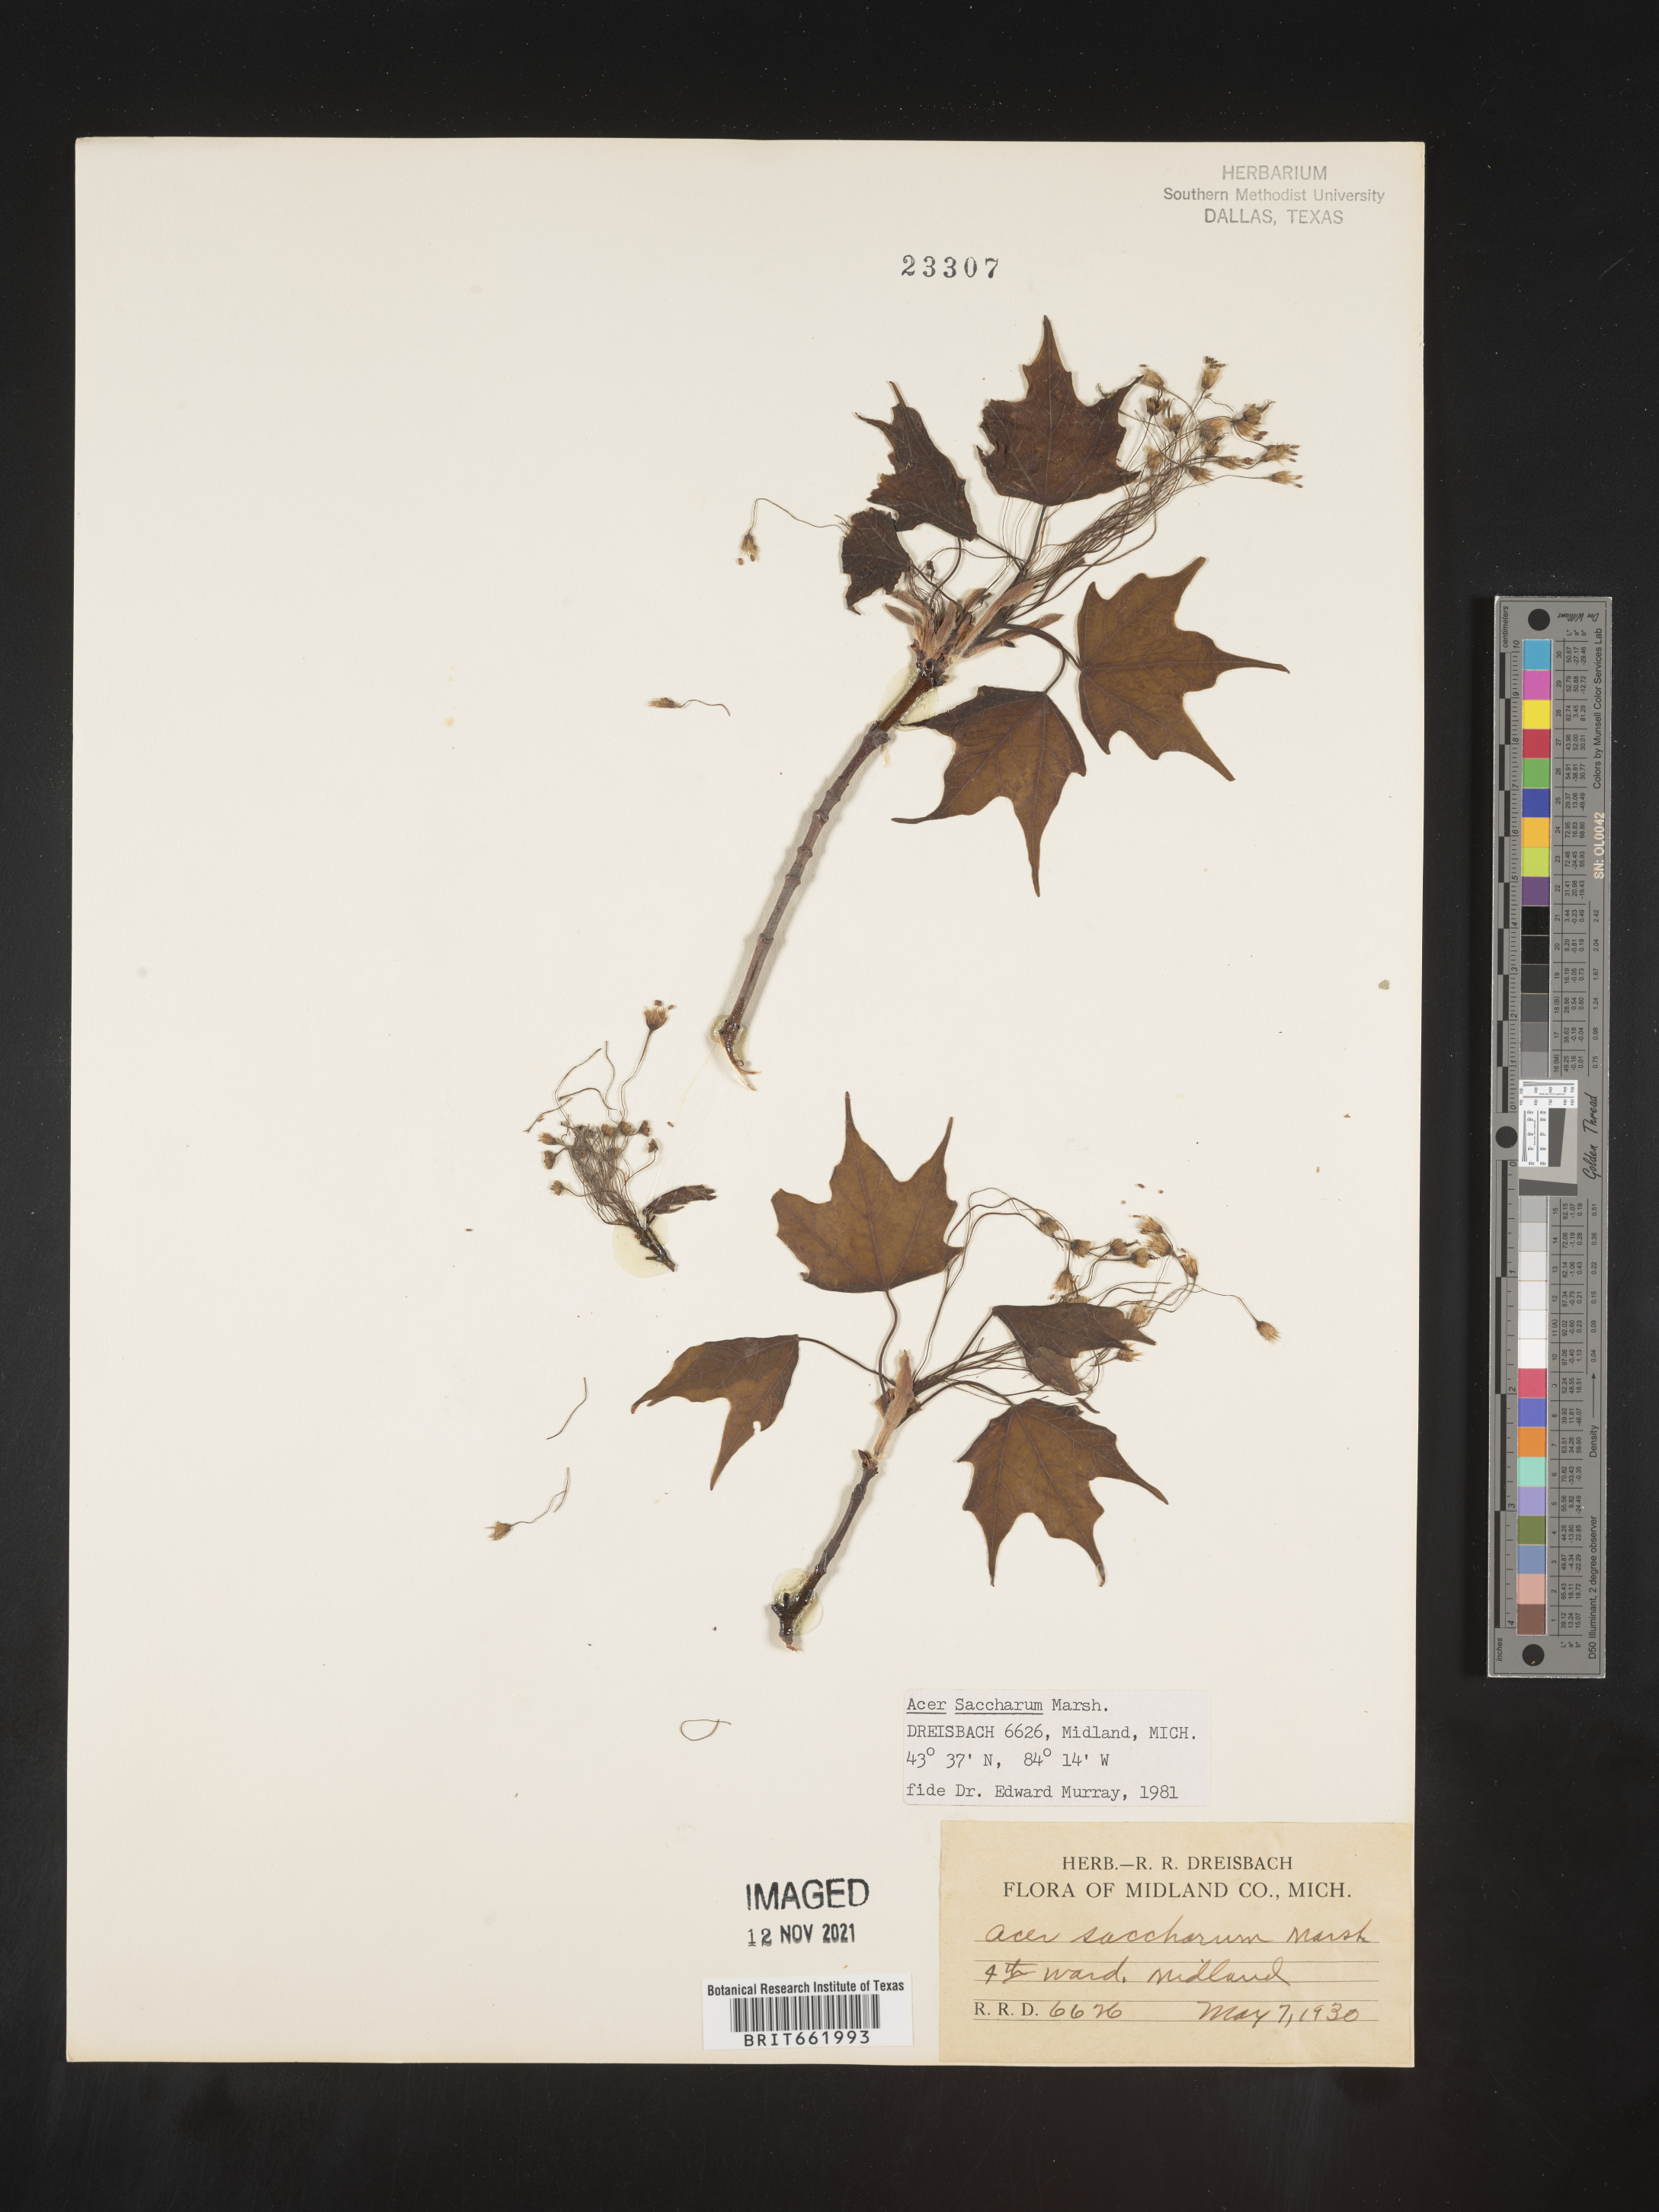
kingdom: Plantae
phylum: Tracheophyta
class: Magnoliopsida
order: Sapindales
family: Sapindaceae
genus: Acer
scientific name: Acer saccharum
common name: Sugar maple
